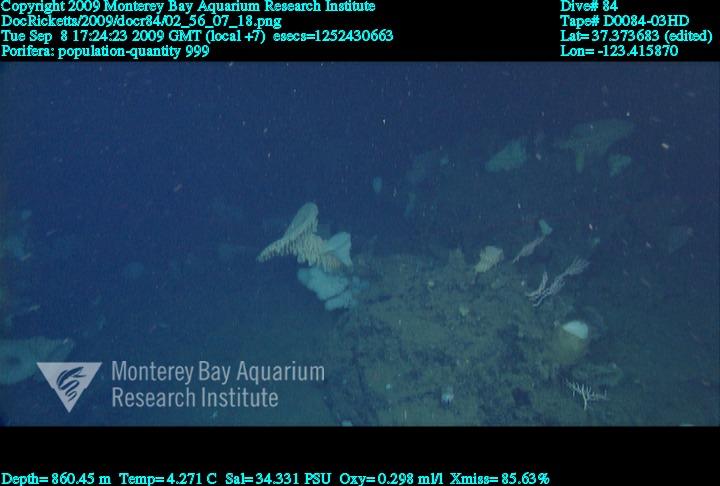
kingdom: Animalia
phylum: Porifera
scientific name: Porifera
